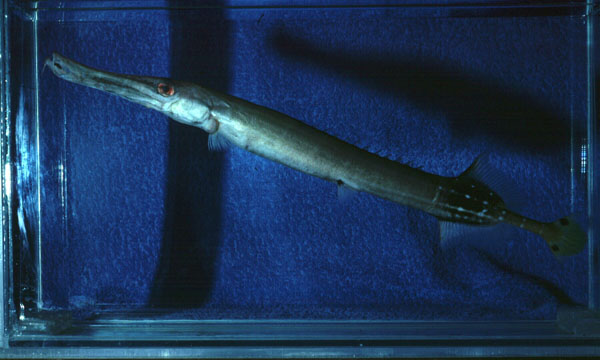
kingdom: Animalia
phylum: Chordata
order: Syngnathiformes
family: Aulostomidae
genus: Aulostomus
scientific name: Aulostomus chinensis
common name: Chinese trumpetfish
